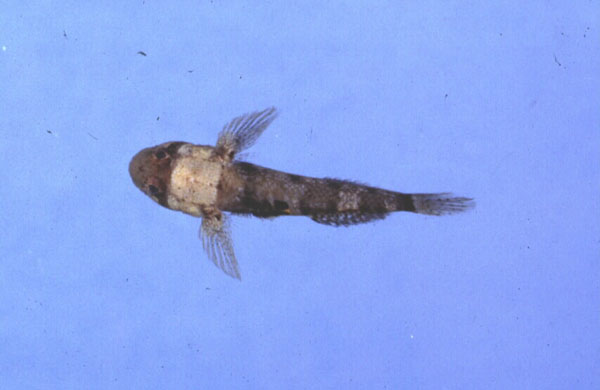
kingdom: Animalia
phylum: Chordata
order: Perciformes
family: Gobiidae
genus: Hetereleotris
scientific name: Hetereleotris zanzibarensis
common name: Goggle goby
